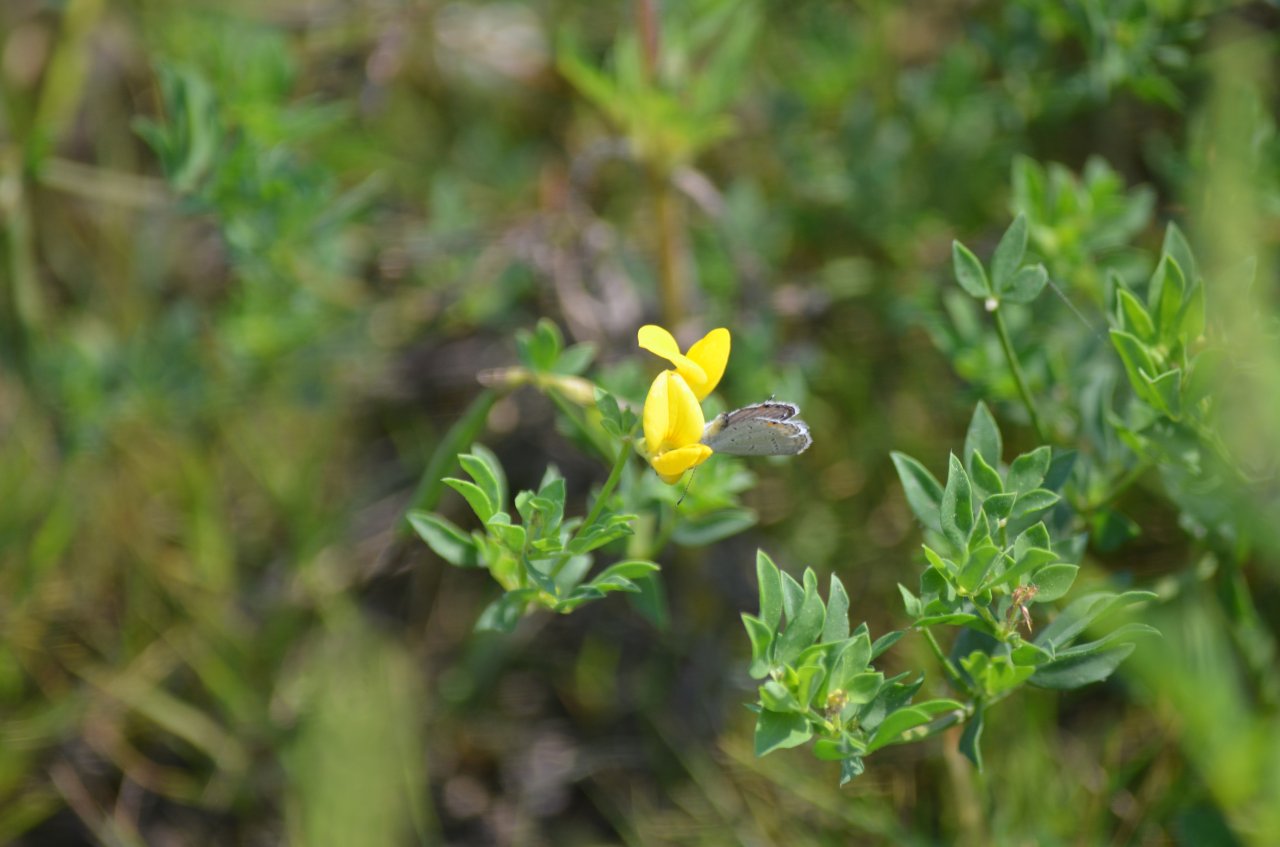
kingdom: Animalia
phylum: Arthropoda
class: Insecta
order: Lepidoptera
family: Lycaenidae
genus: Elkalyce
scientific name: Elkalyce comyntas
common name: Eastern Tailed-Blue
